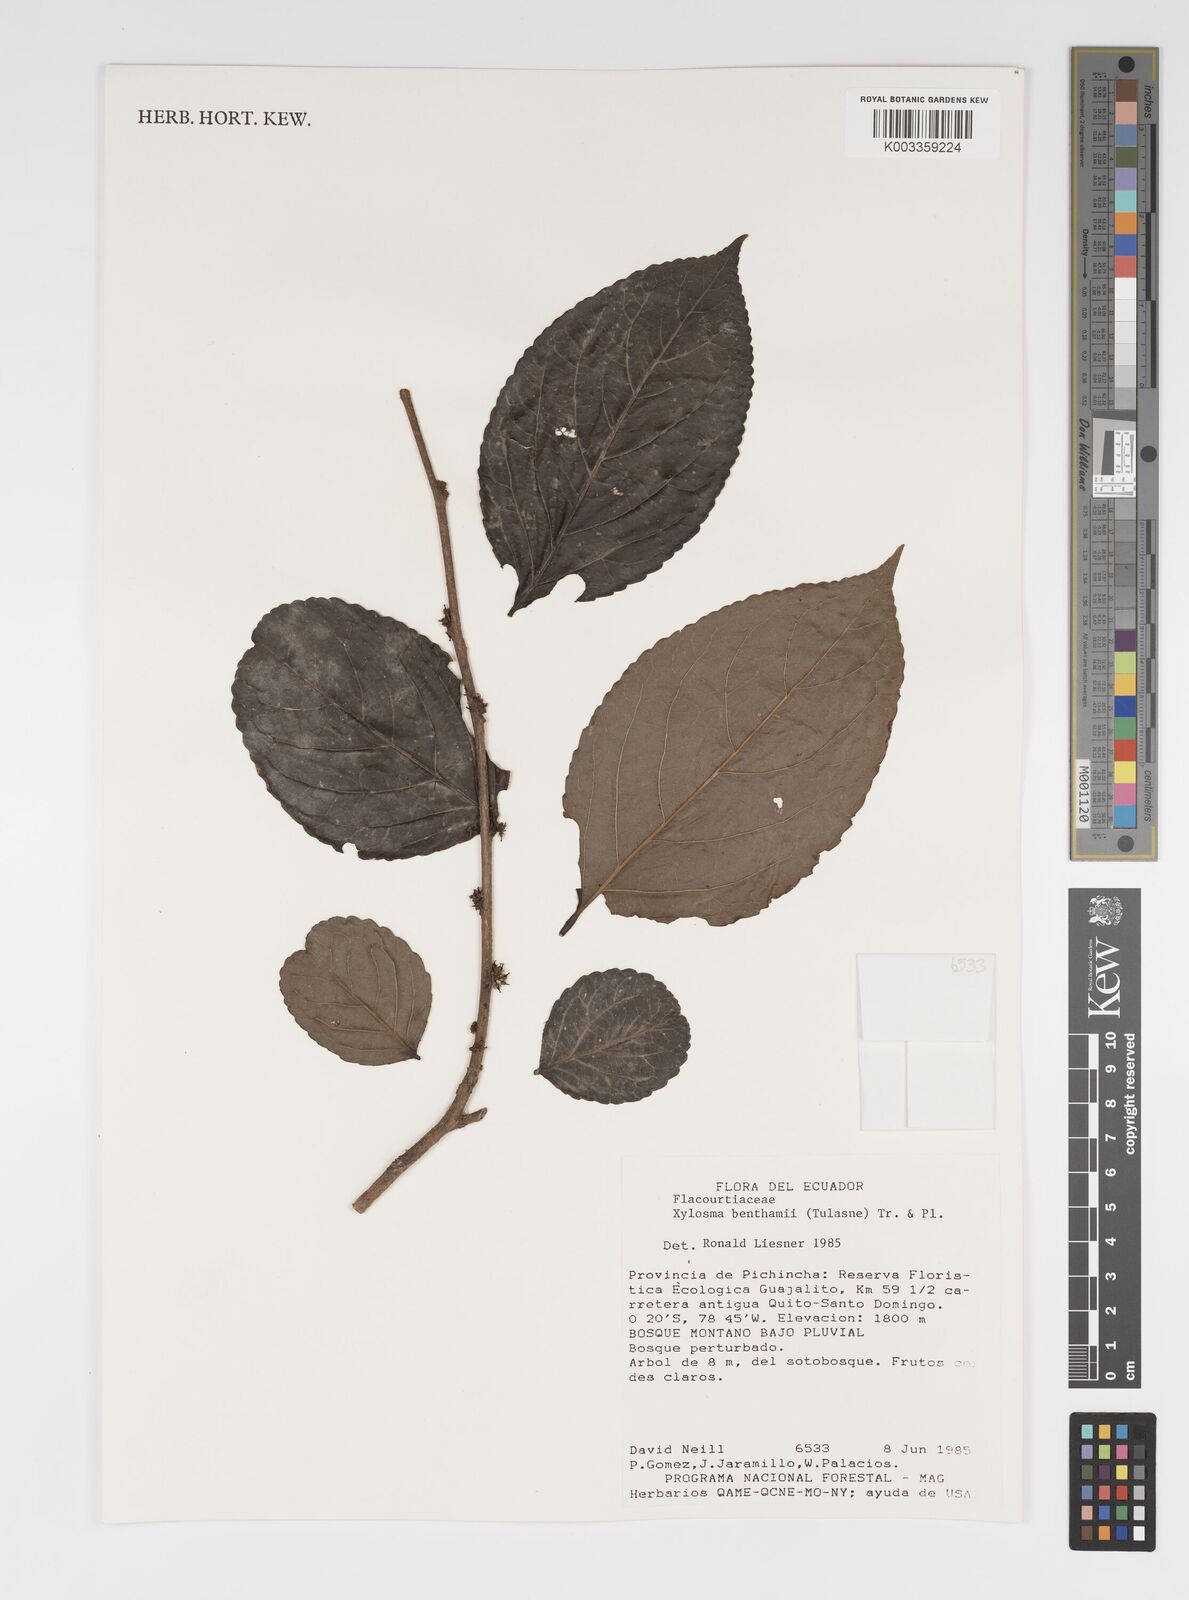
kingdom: Plantae
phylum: Tracheophyta
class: Magnoliopsida
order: Malpighiales
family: Salicaceae
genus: Xylosma
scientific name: Xylosma benthamii
